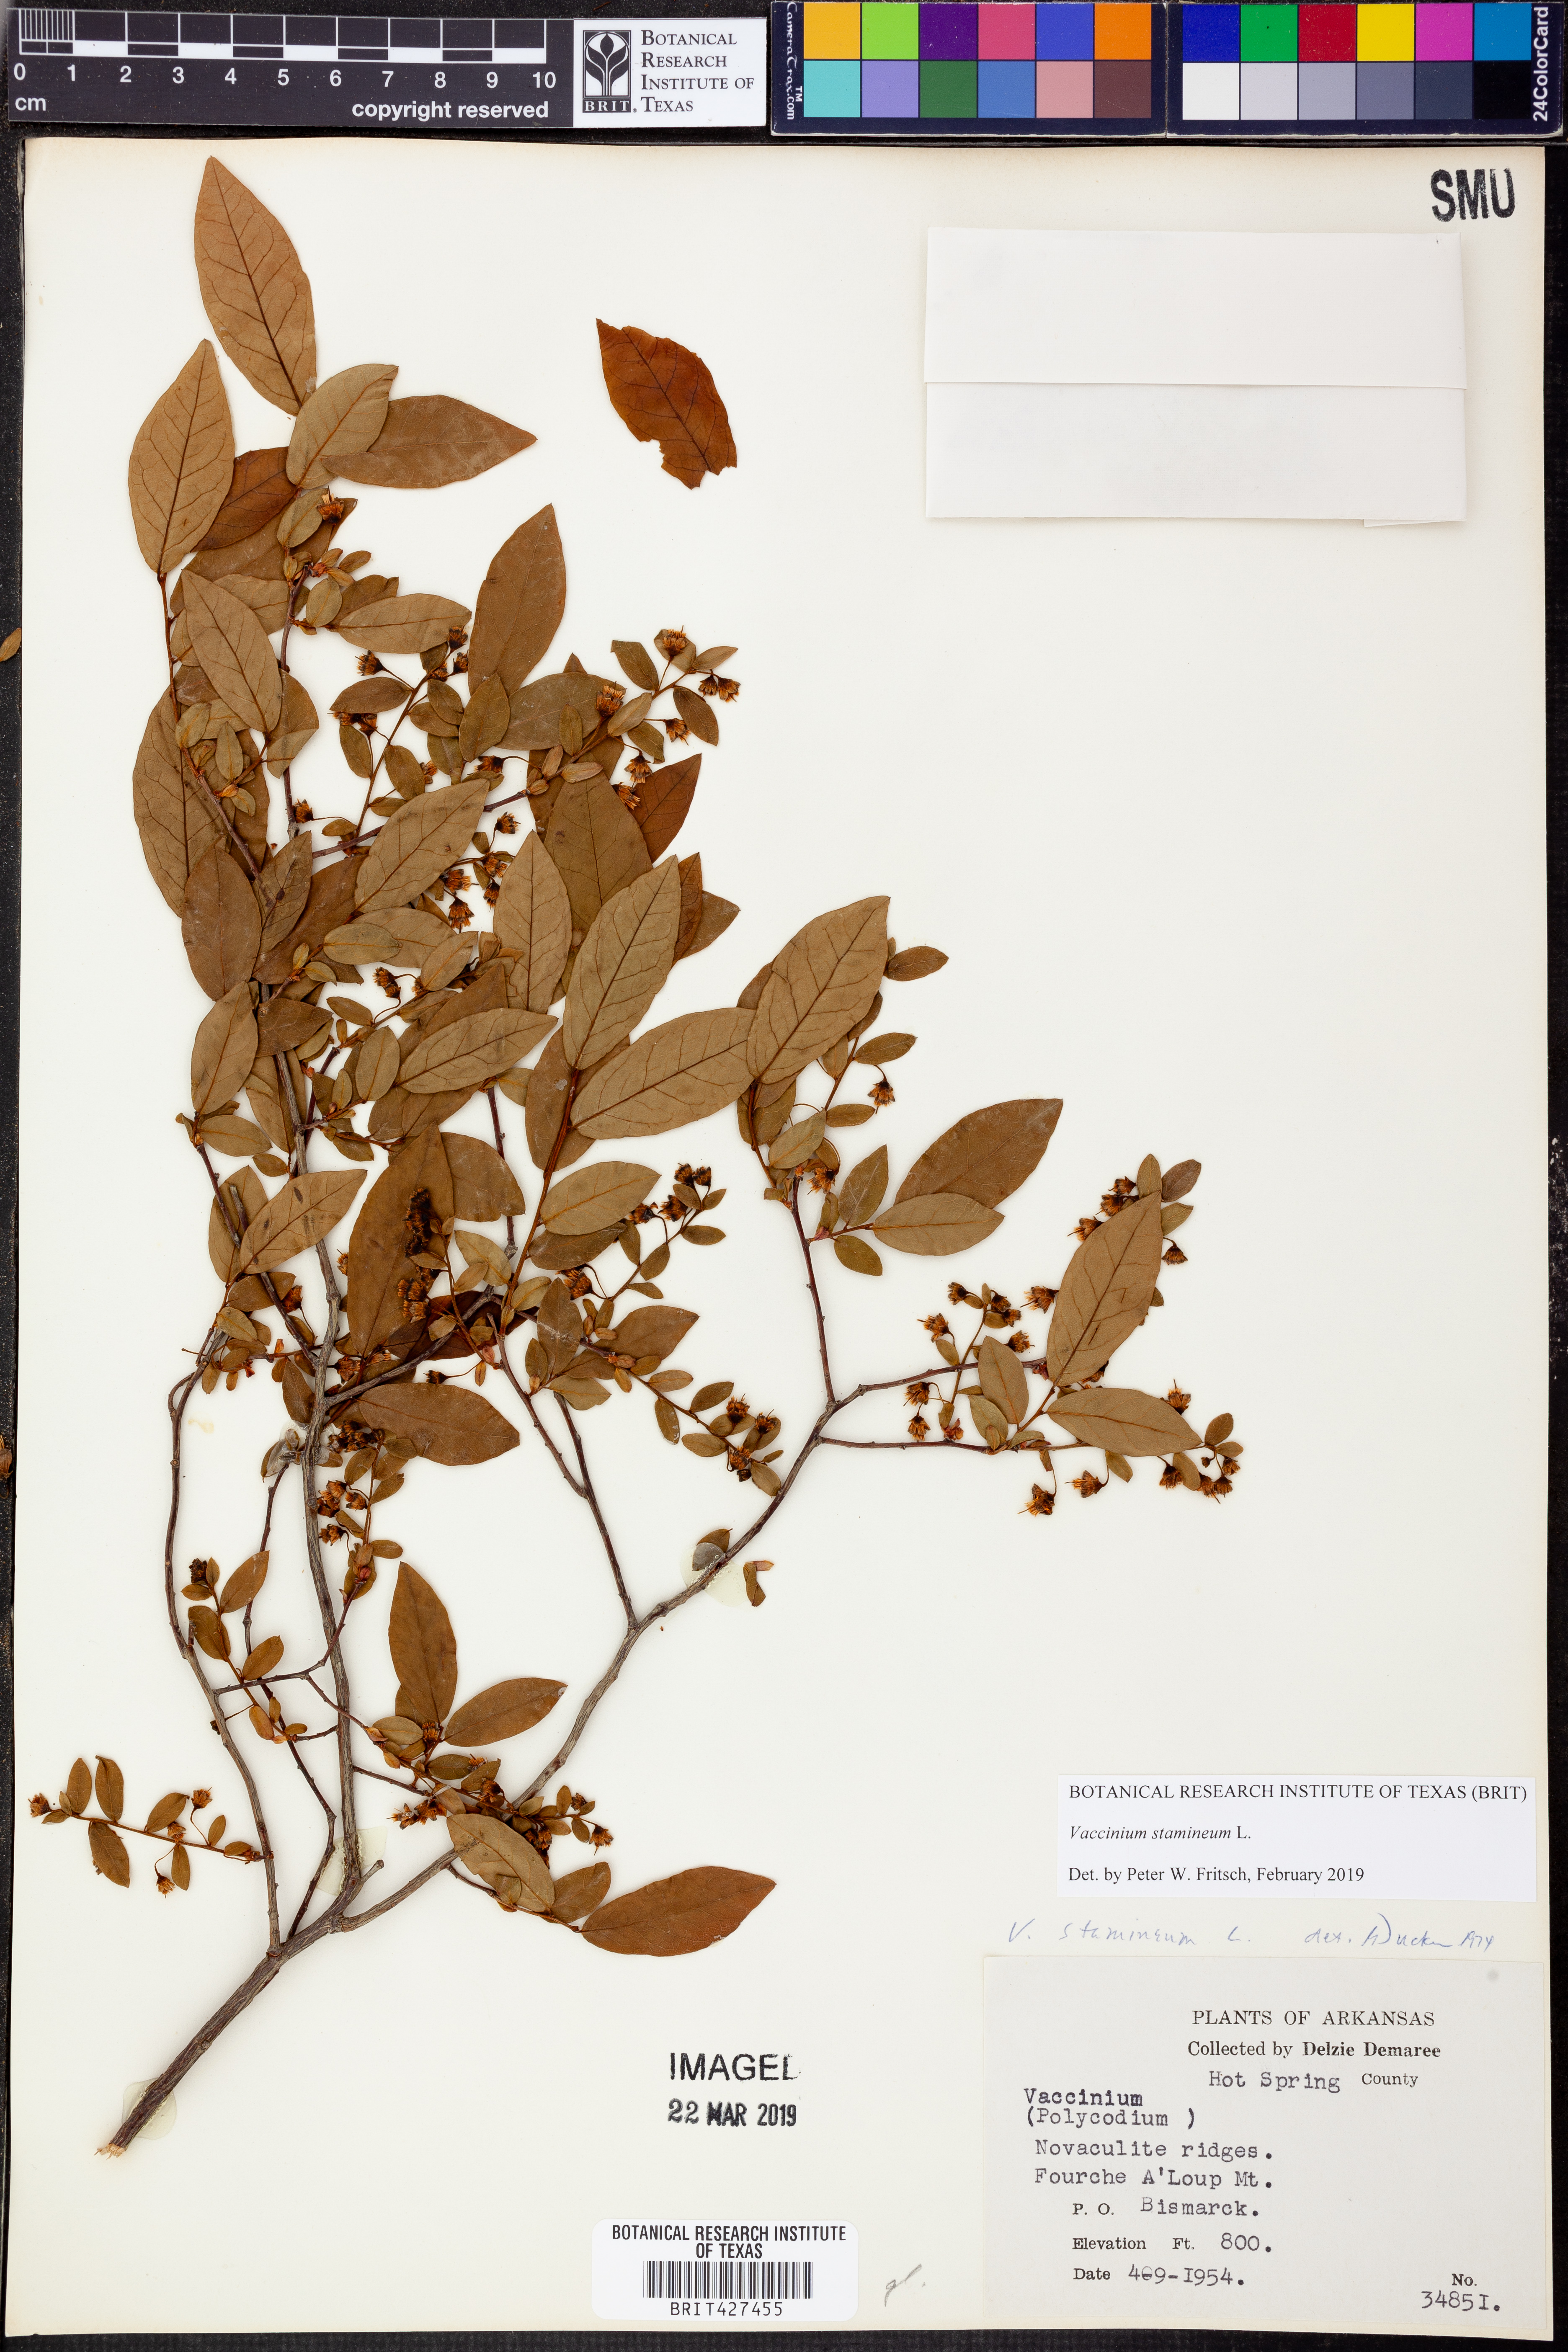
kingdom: Plantae
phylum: Tracheophyta
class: Magnoliopsida
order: Ericales
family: Ericaceae
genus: Vaccinium
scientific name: Vaccinium stamineum
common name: Deerberry
